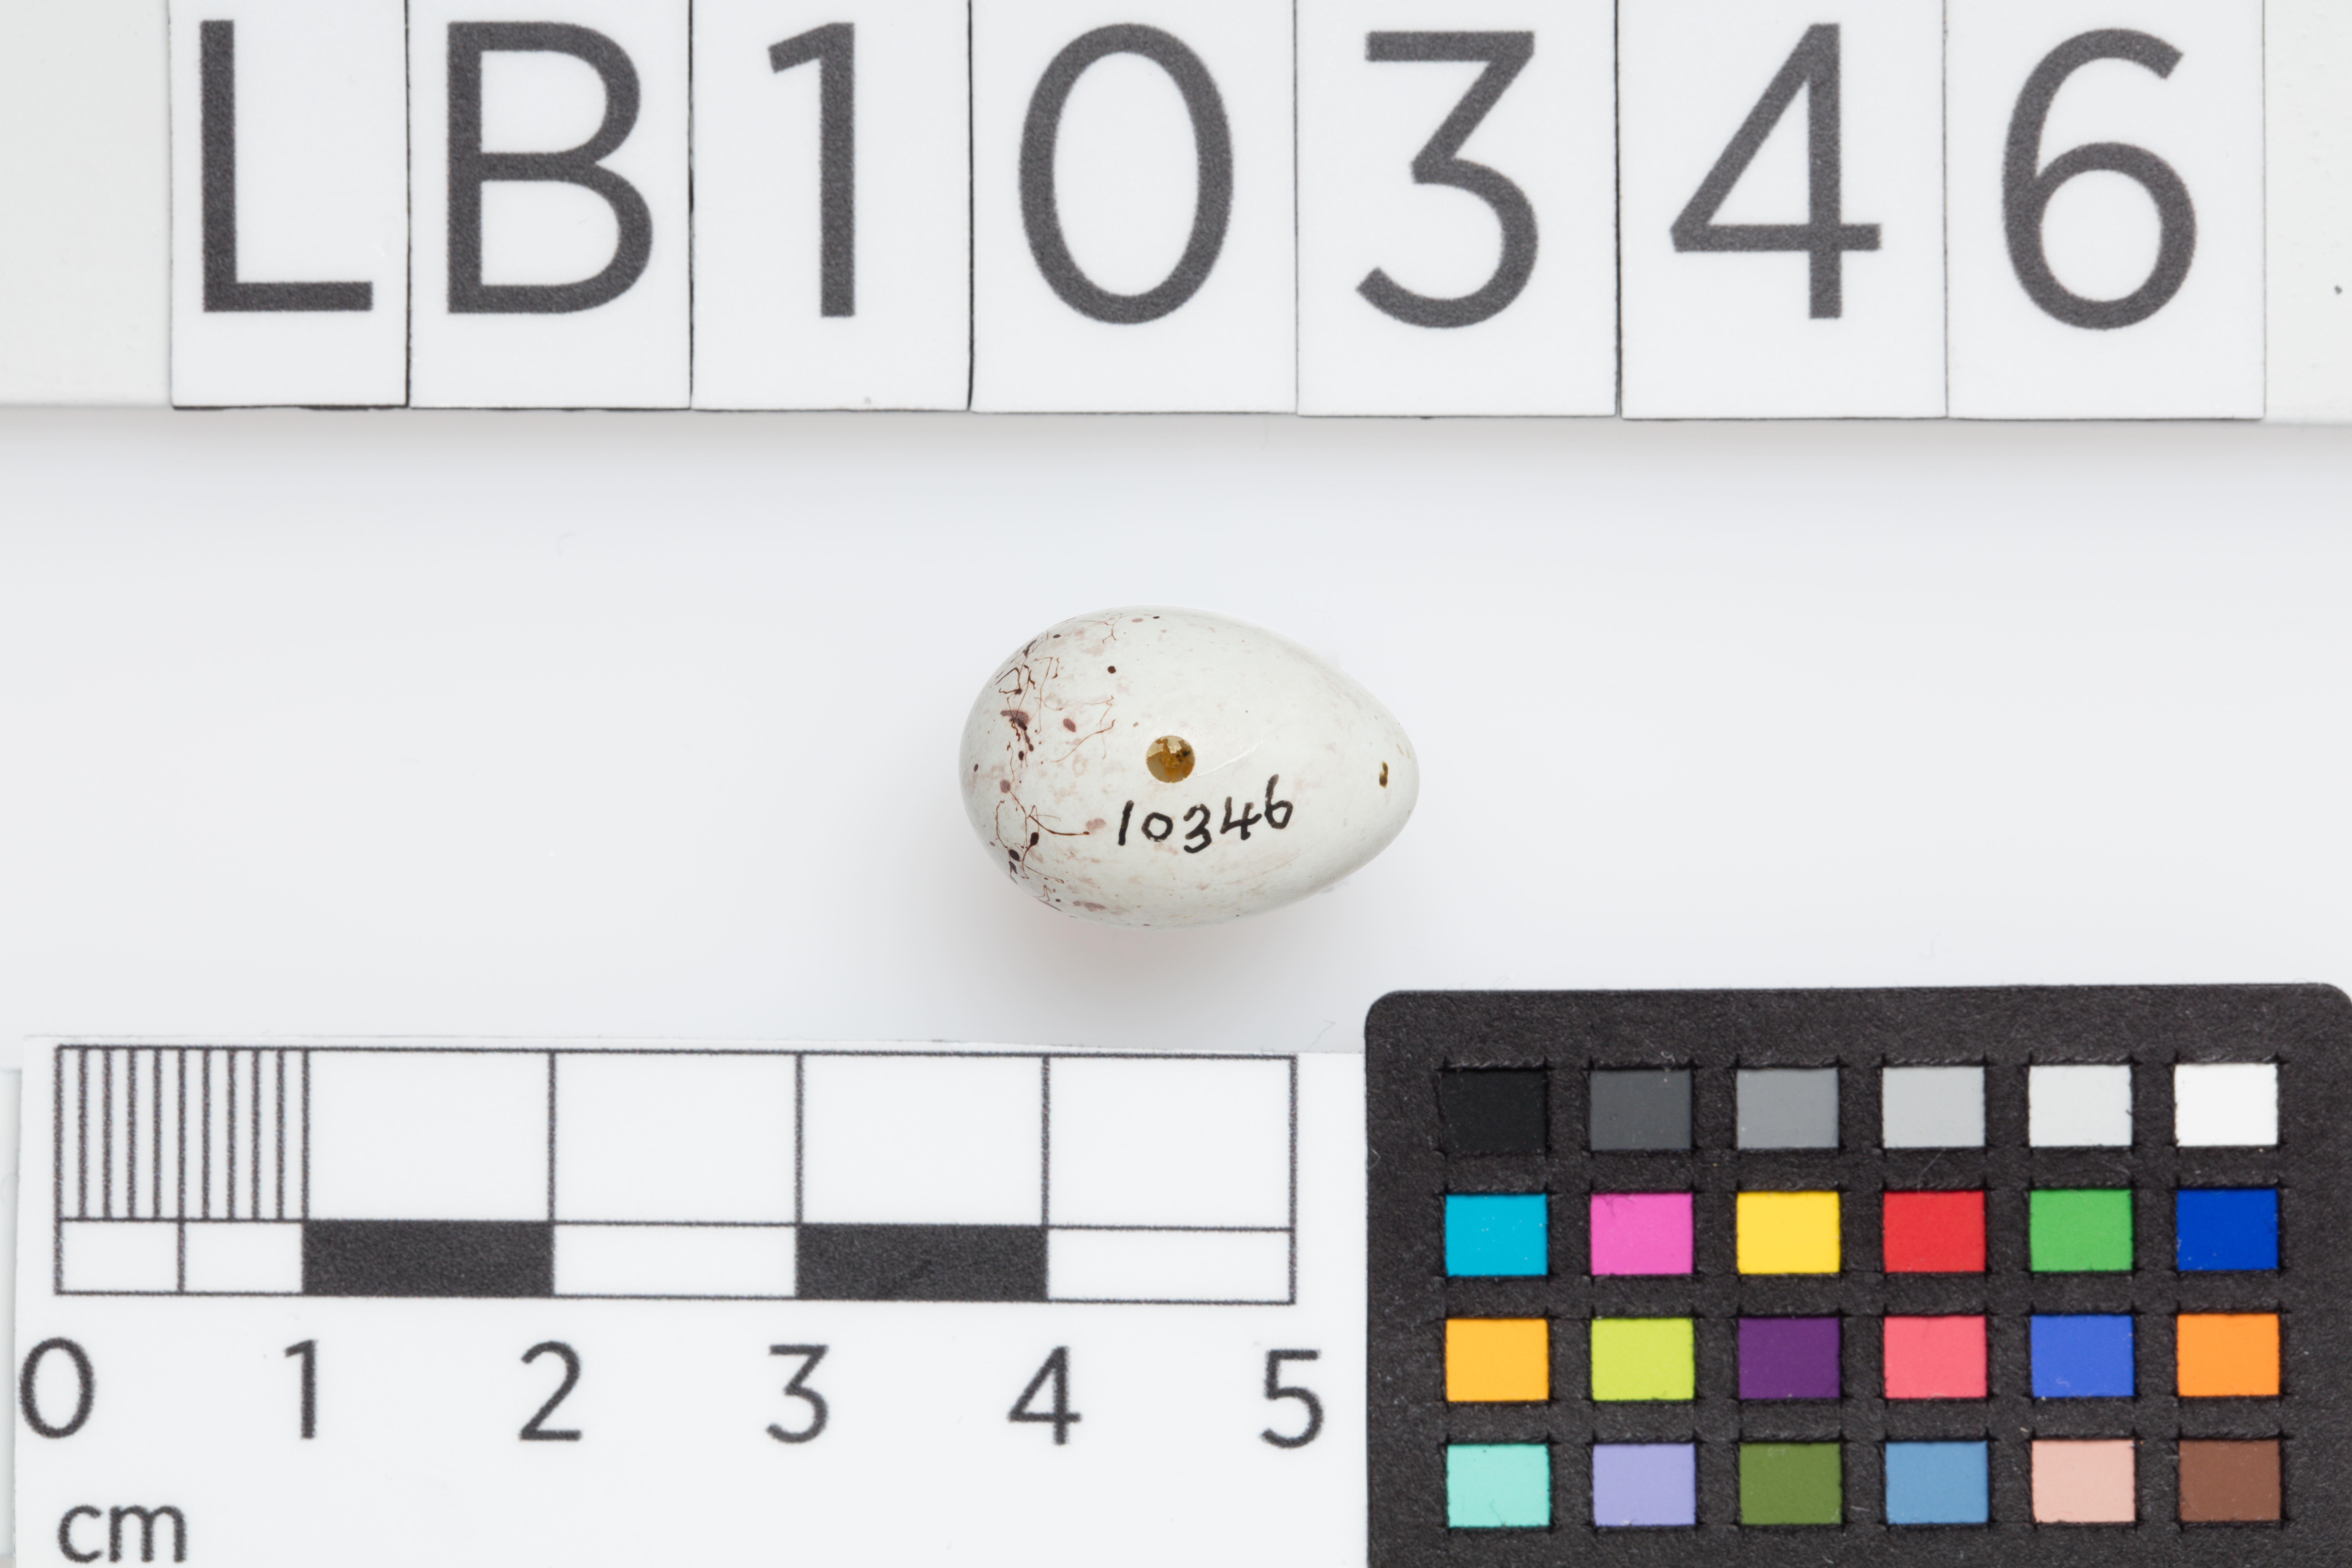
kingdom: Animalia
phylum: Chordata
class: Aves
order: Passeriformes
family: Fringillidae
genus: Linaria
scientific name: Linaria cannabina
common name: Common linnet
